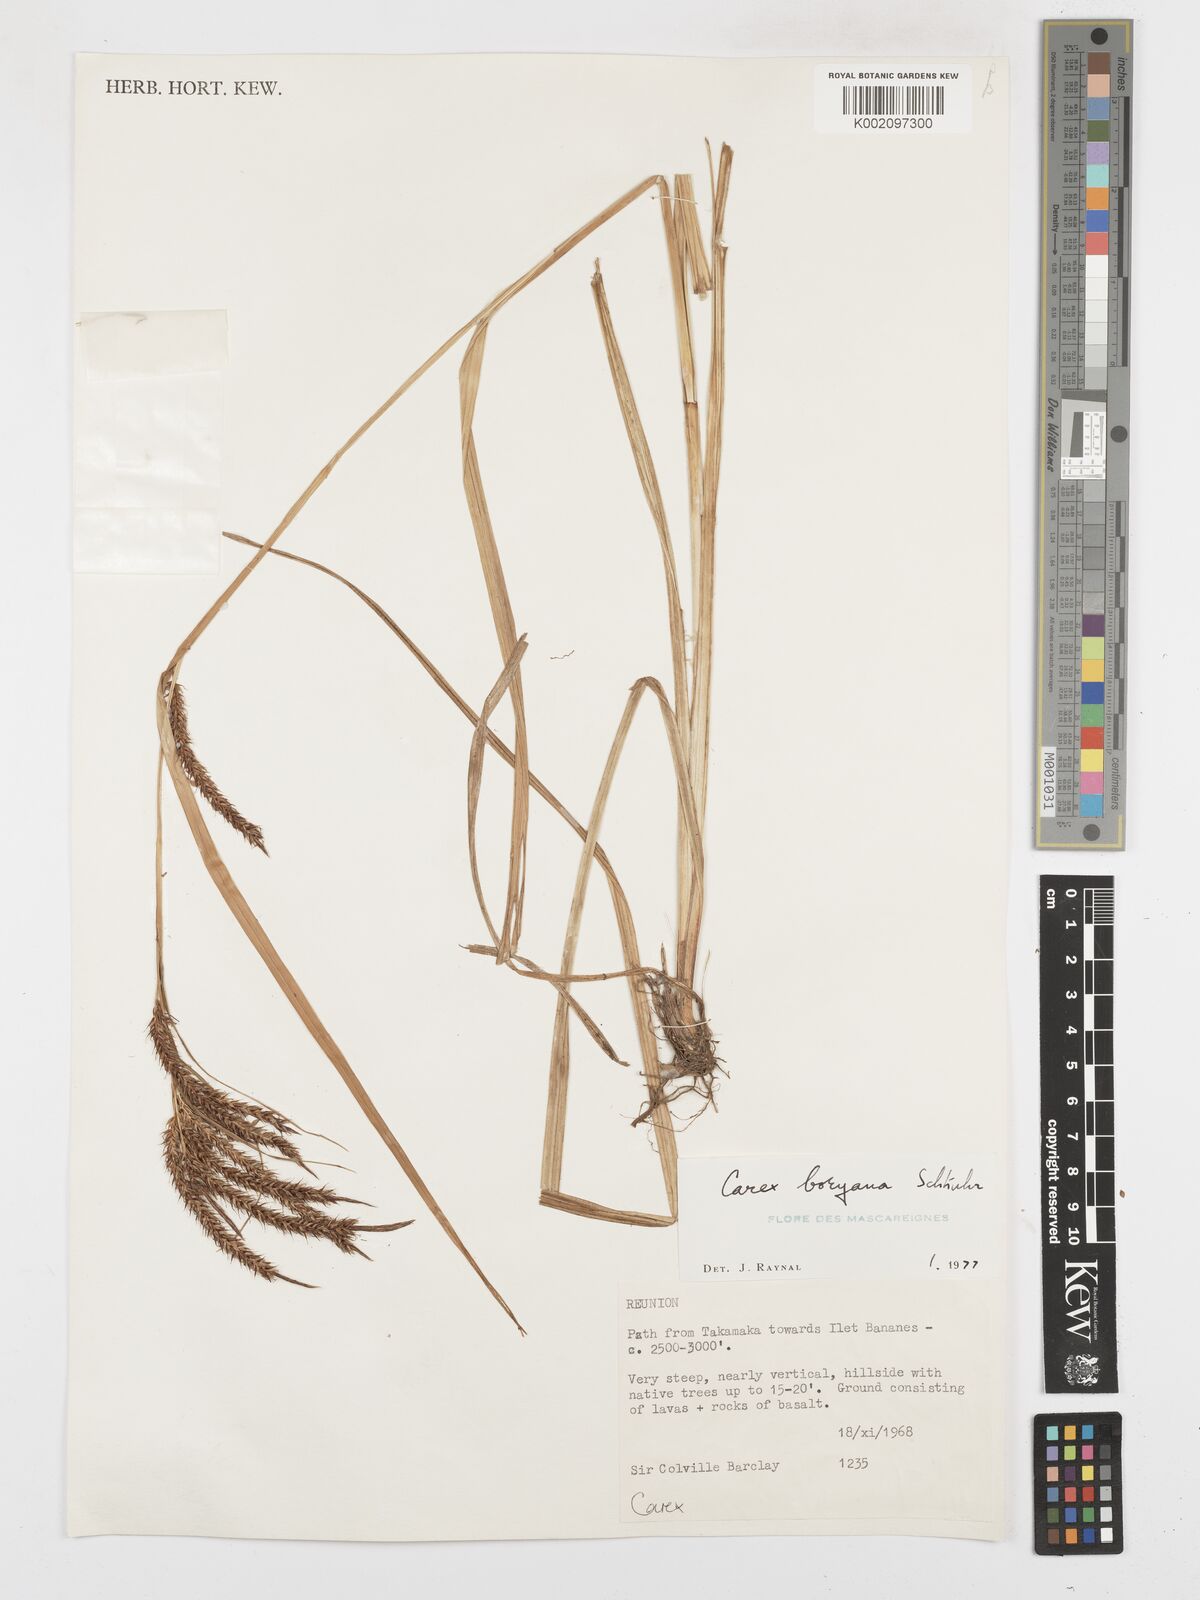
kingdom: Plantae
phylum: Tracheophyta
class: Liliopsida
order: Poales
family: Cyperaceae
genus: Carex
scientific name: Carex boryana
